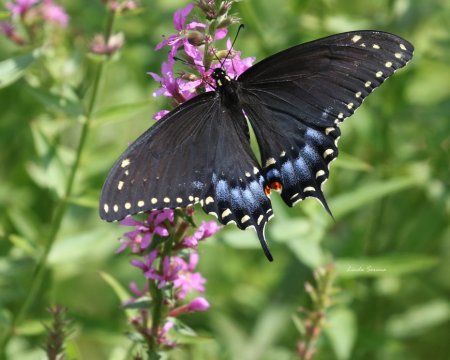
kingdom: Animalia
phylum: Arthropoda
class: Insecta
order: Lepidoptera
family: Papilionidae
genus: Papilio
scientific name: Papilio polyxenes
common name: Black Swallowtail
